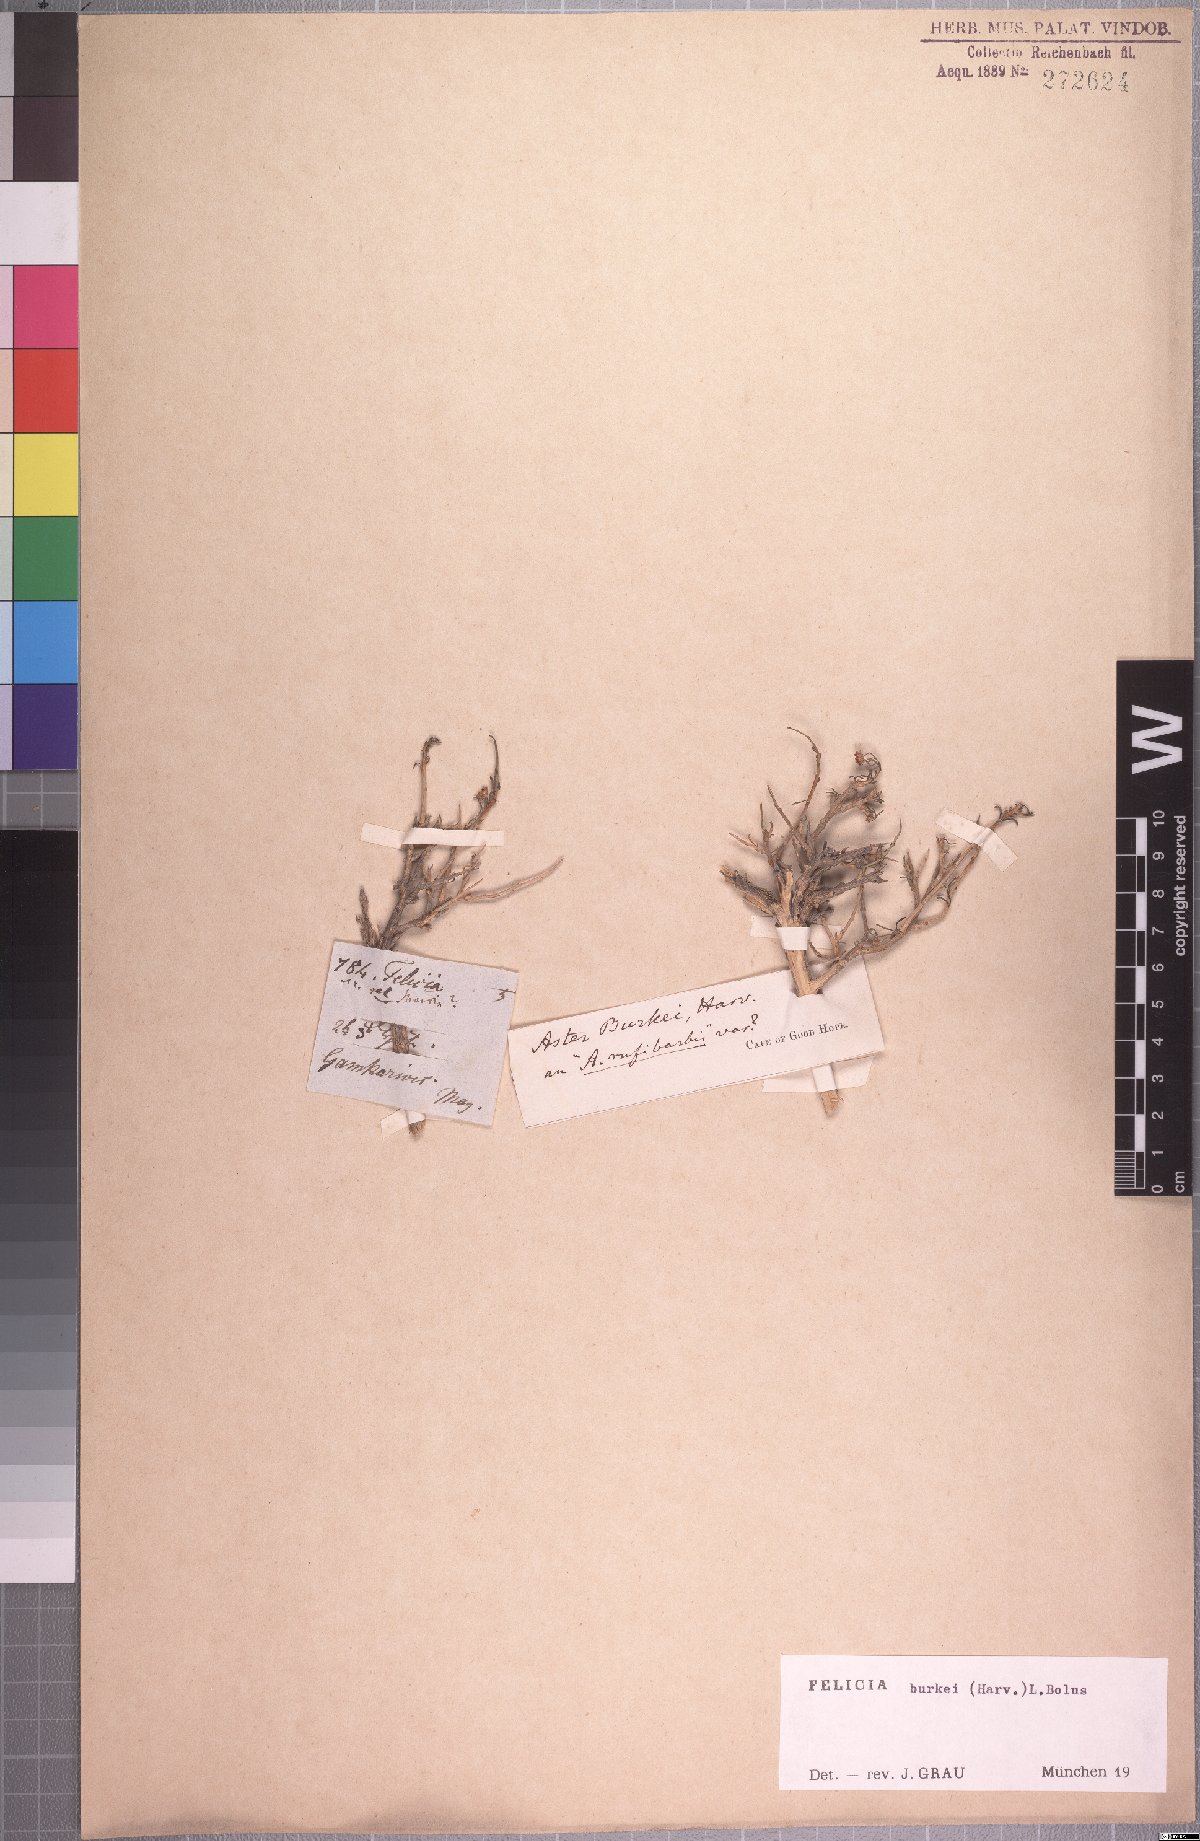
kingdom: Plantae
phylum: Tracheophyta
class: Magnoliopsida
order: Asterales
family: Asteraceae
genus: Felicia
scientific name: Felicia burkei
